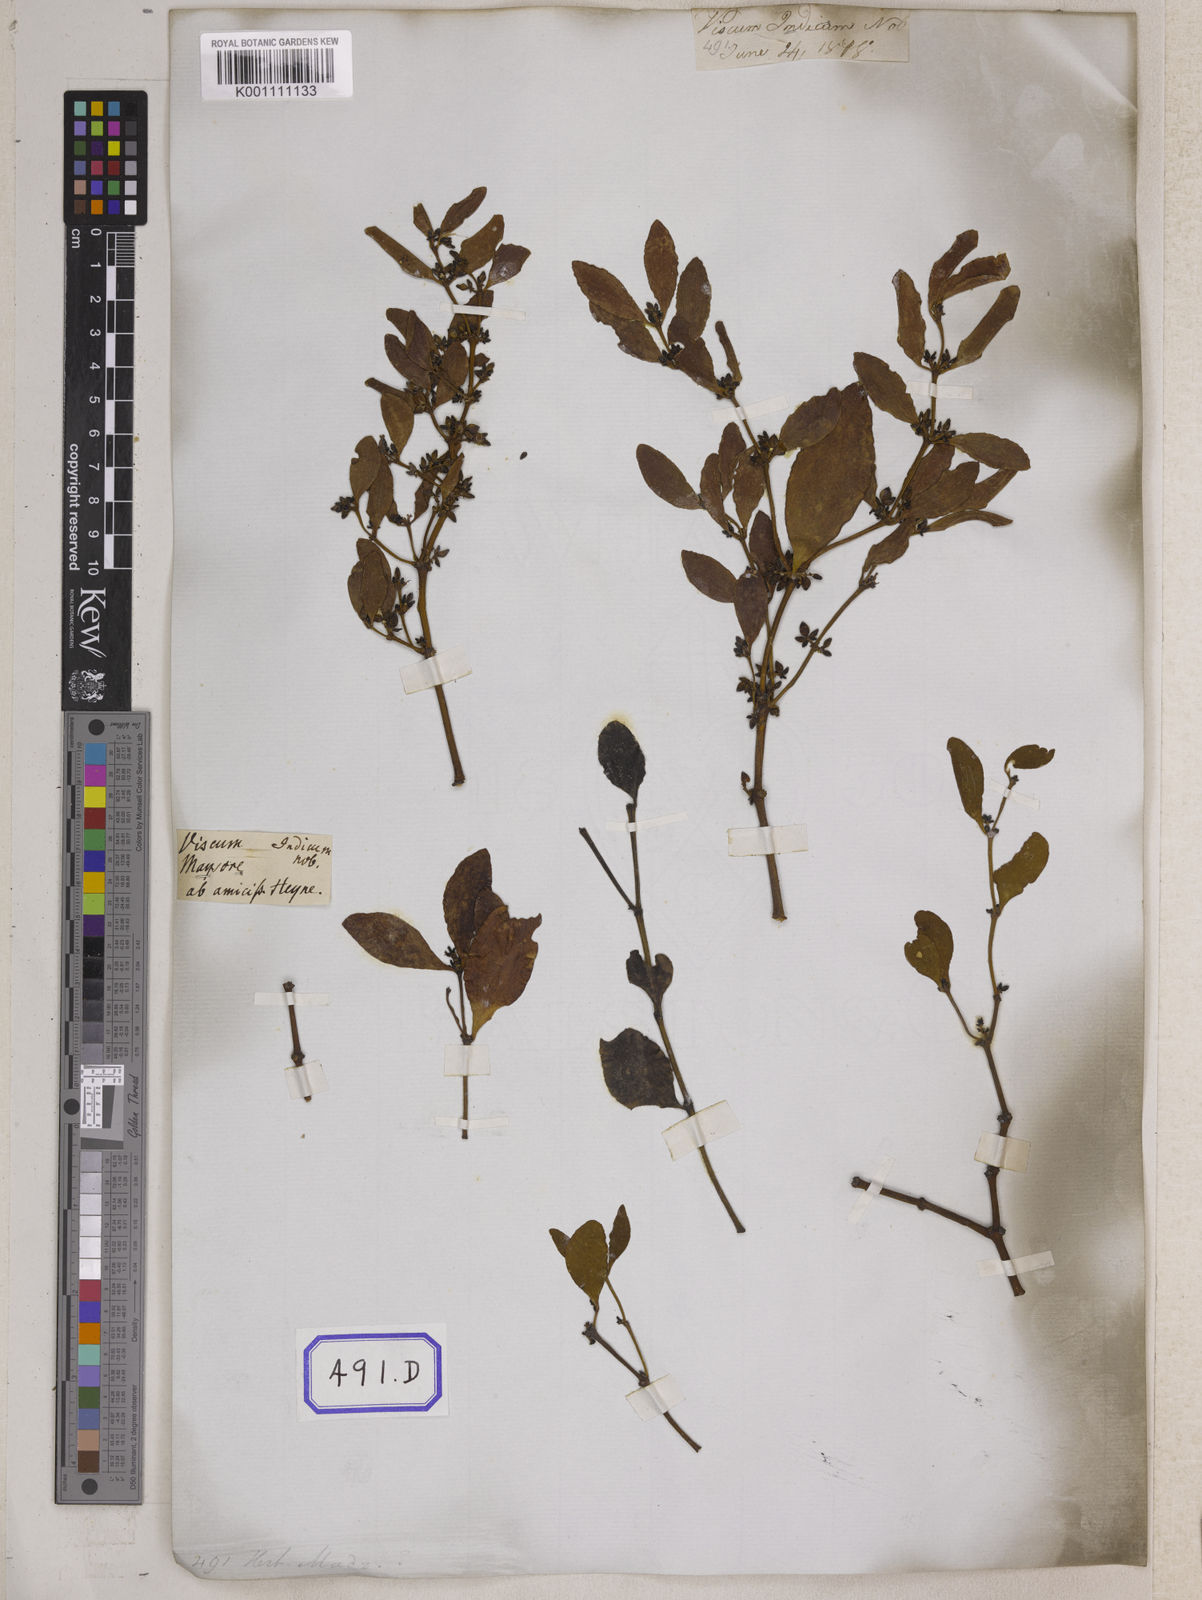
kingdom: Plantae
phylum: Tracheophyta
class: Magnoliopsida
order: Santalales
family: Viscaceae
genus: Viscum
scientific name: Viscum
